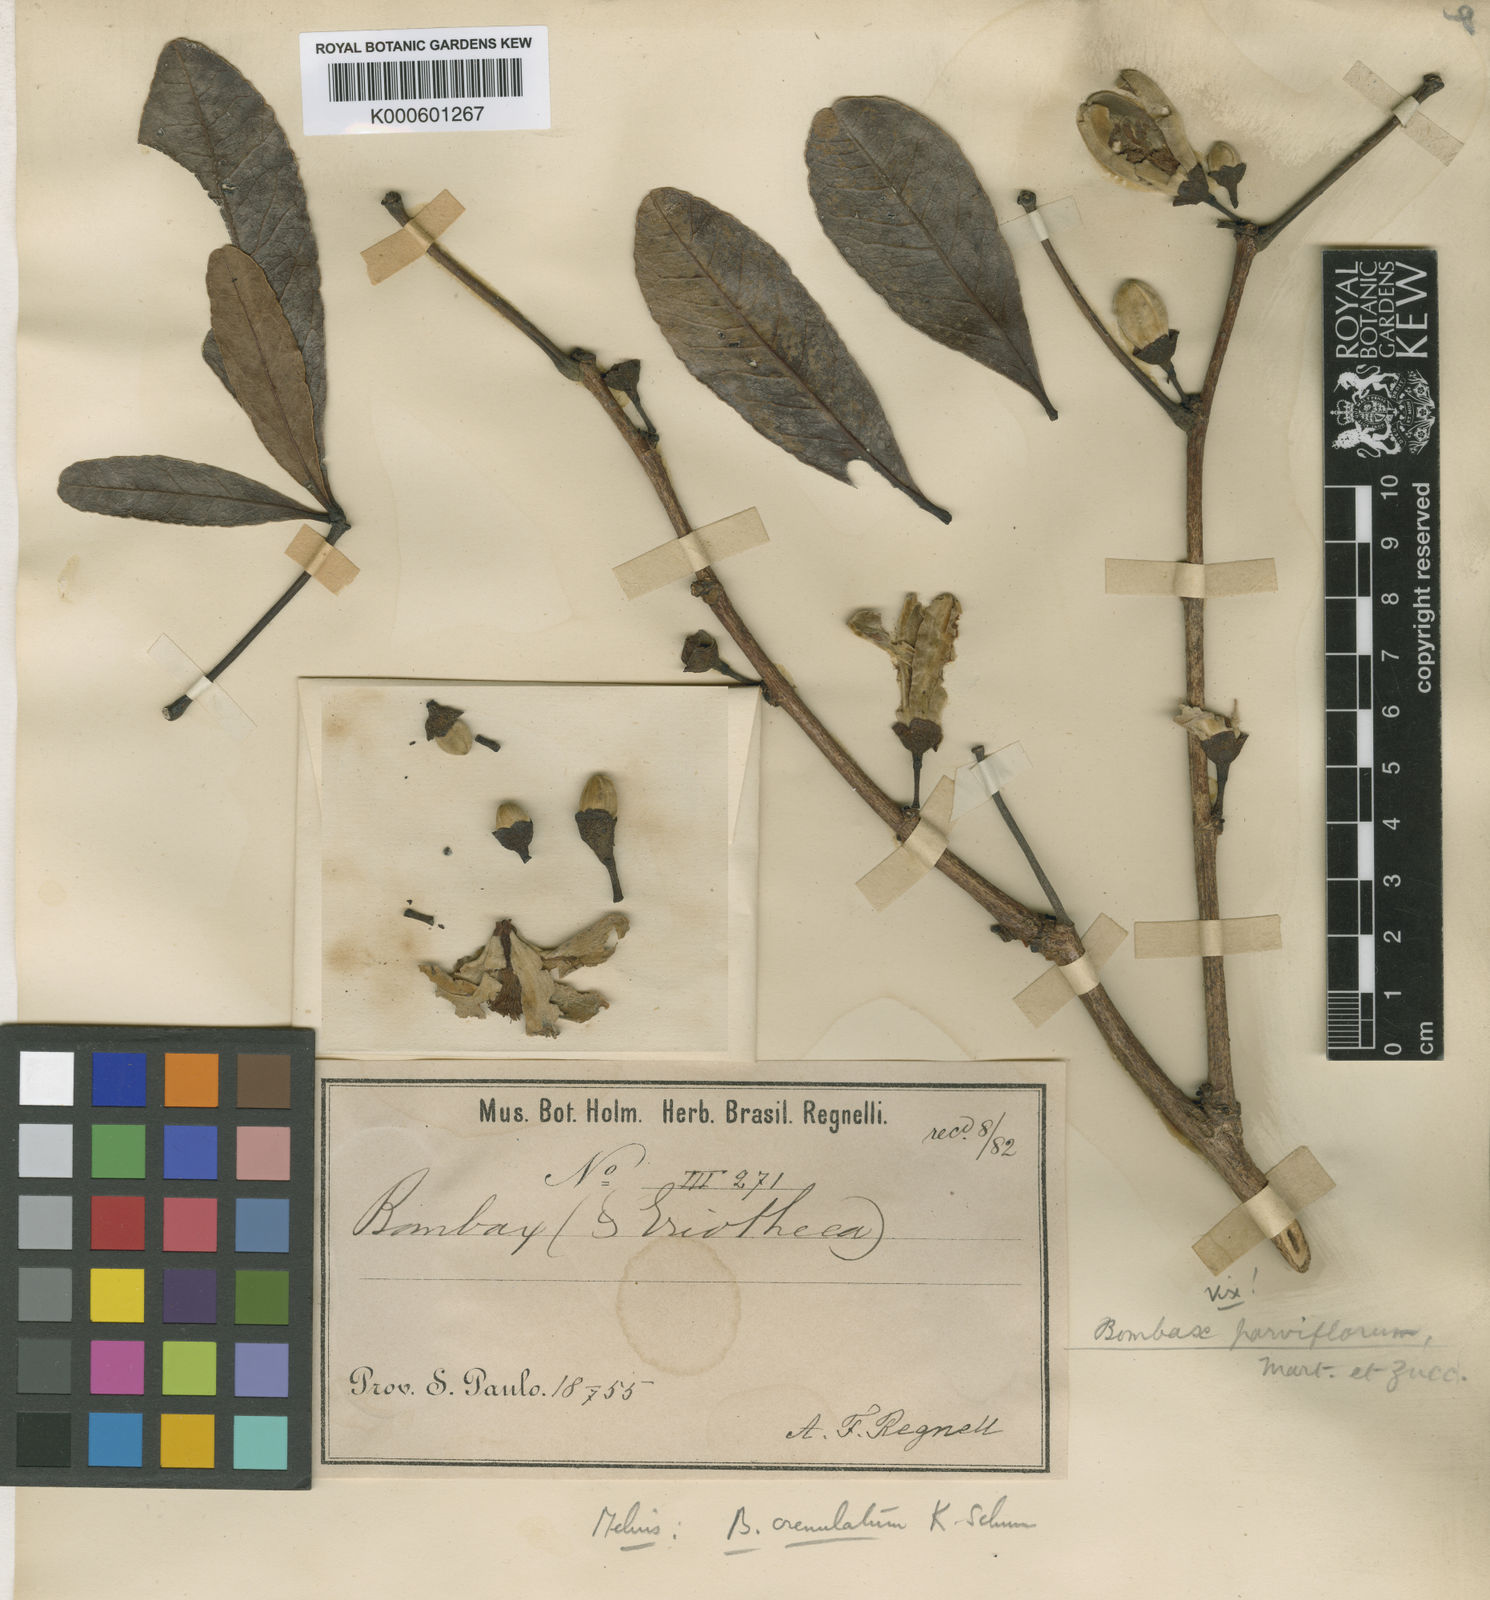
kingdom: Plantae
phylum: Tracheophyta
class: Magnoliopsida
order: Malvales
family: Malvaceae
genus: Eriotheca
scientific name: Eriotheca gracilipes
